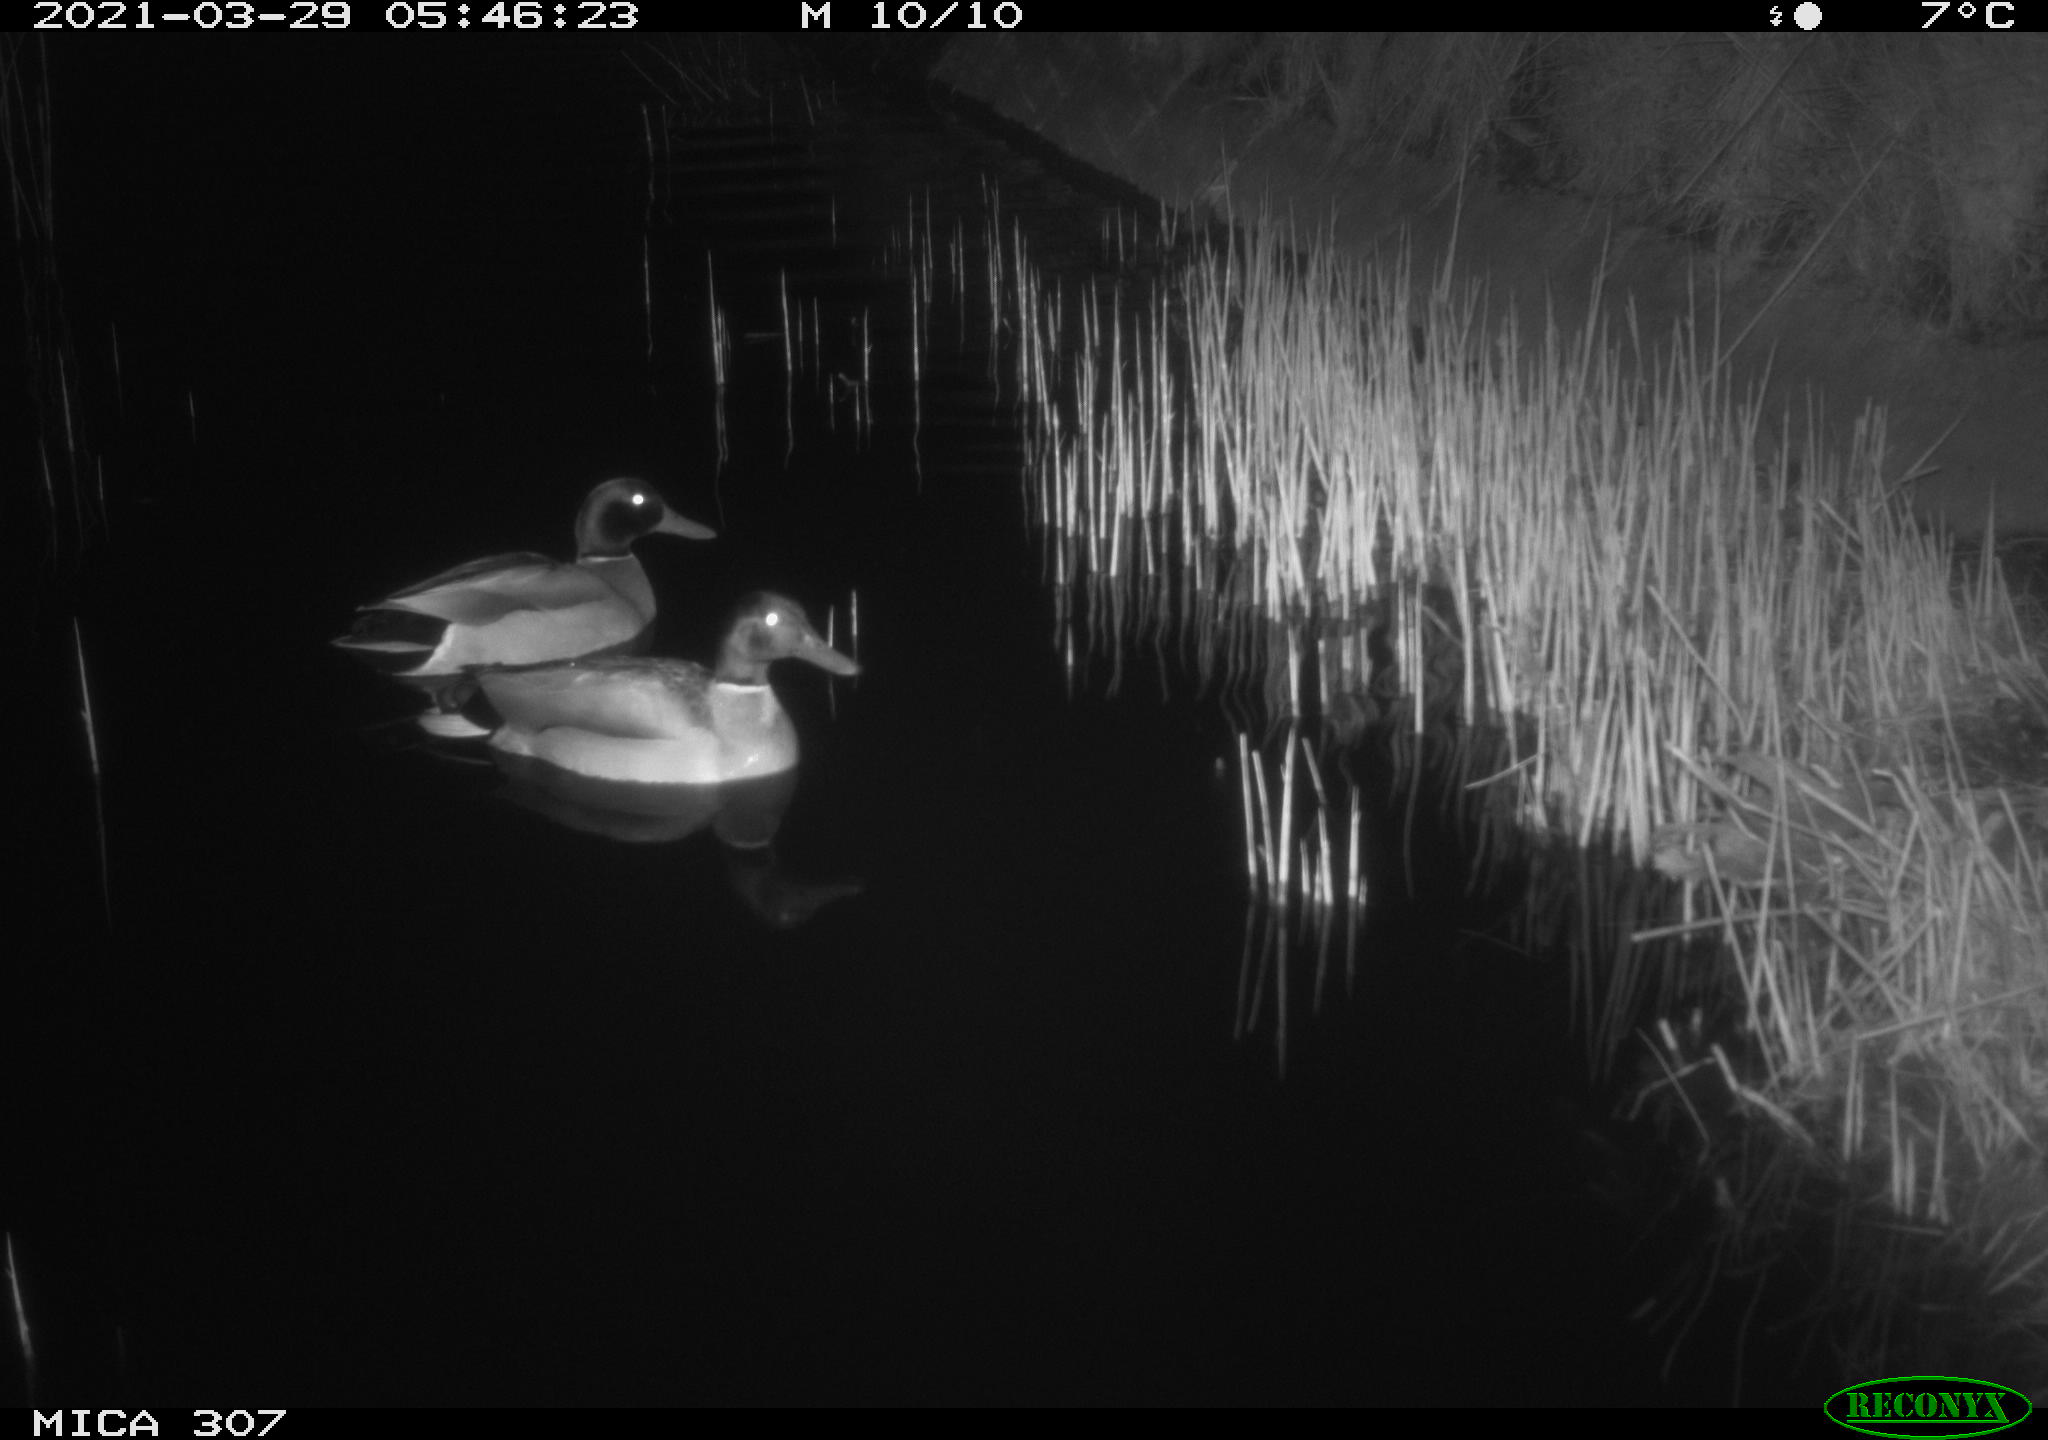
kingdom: Animalia
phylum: Chordata
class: Aves
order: Anseriformes
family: Anatidae
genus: Anas
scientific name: Anas platyrhynchos
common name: Mallard
